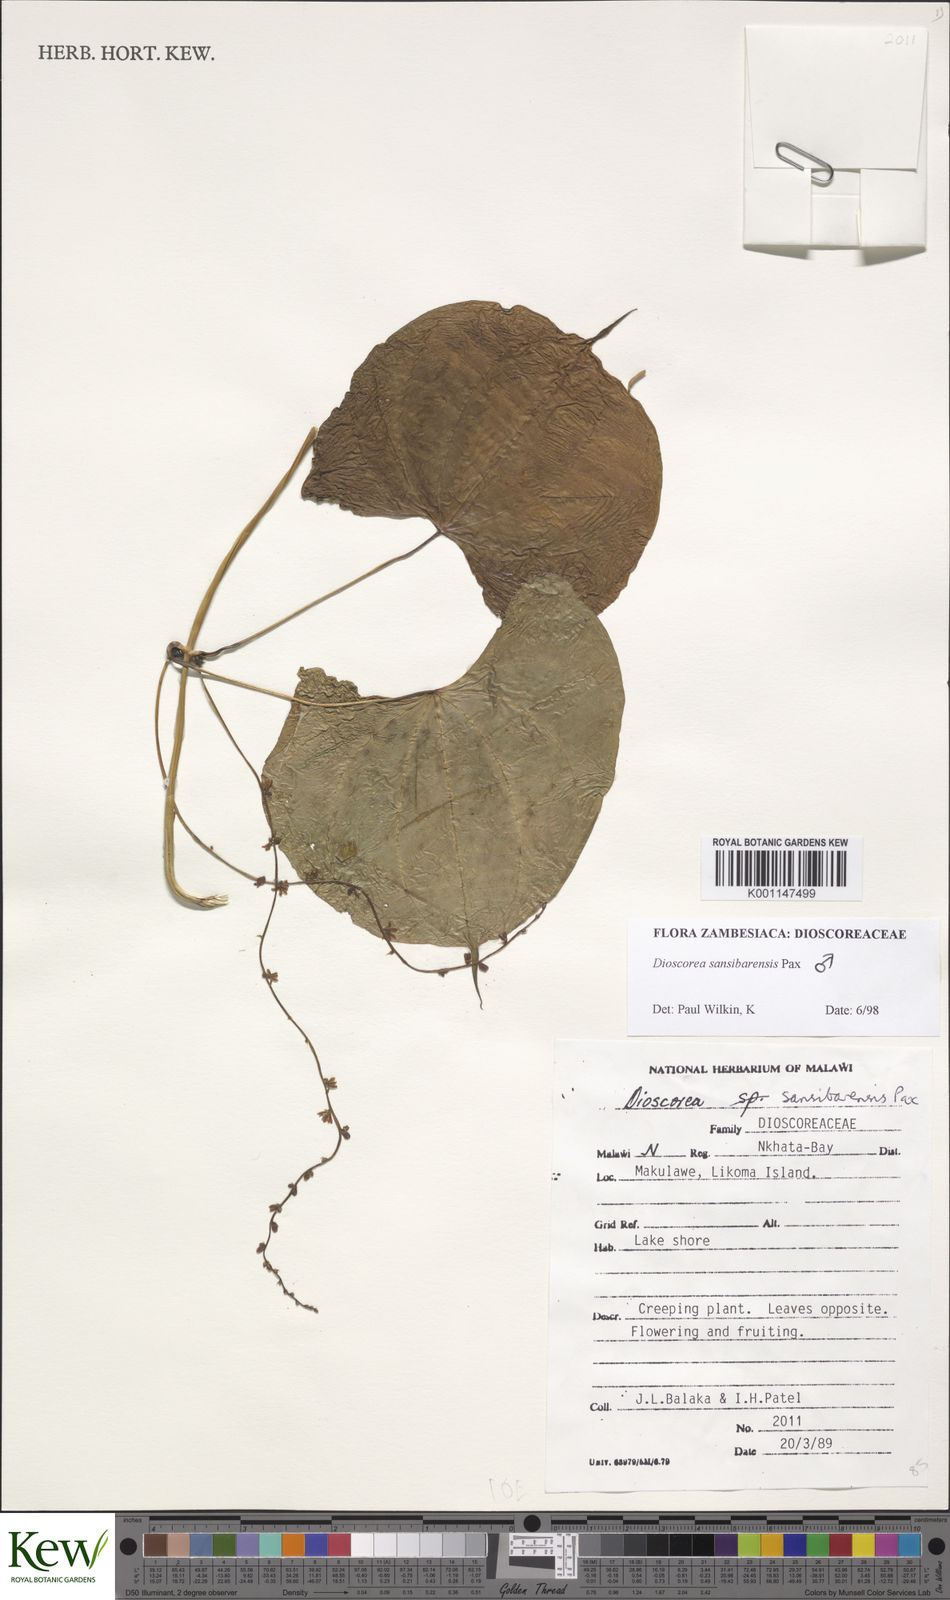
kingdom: Plantae
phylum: Tracheophyta
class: Liliopsida
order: Dioscoreales
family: Dioscoreaceae
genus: Dioscorea
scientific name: Dioscorea sansibarensis
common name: Zanzibar yam
